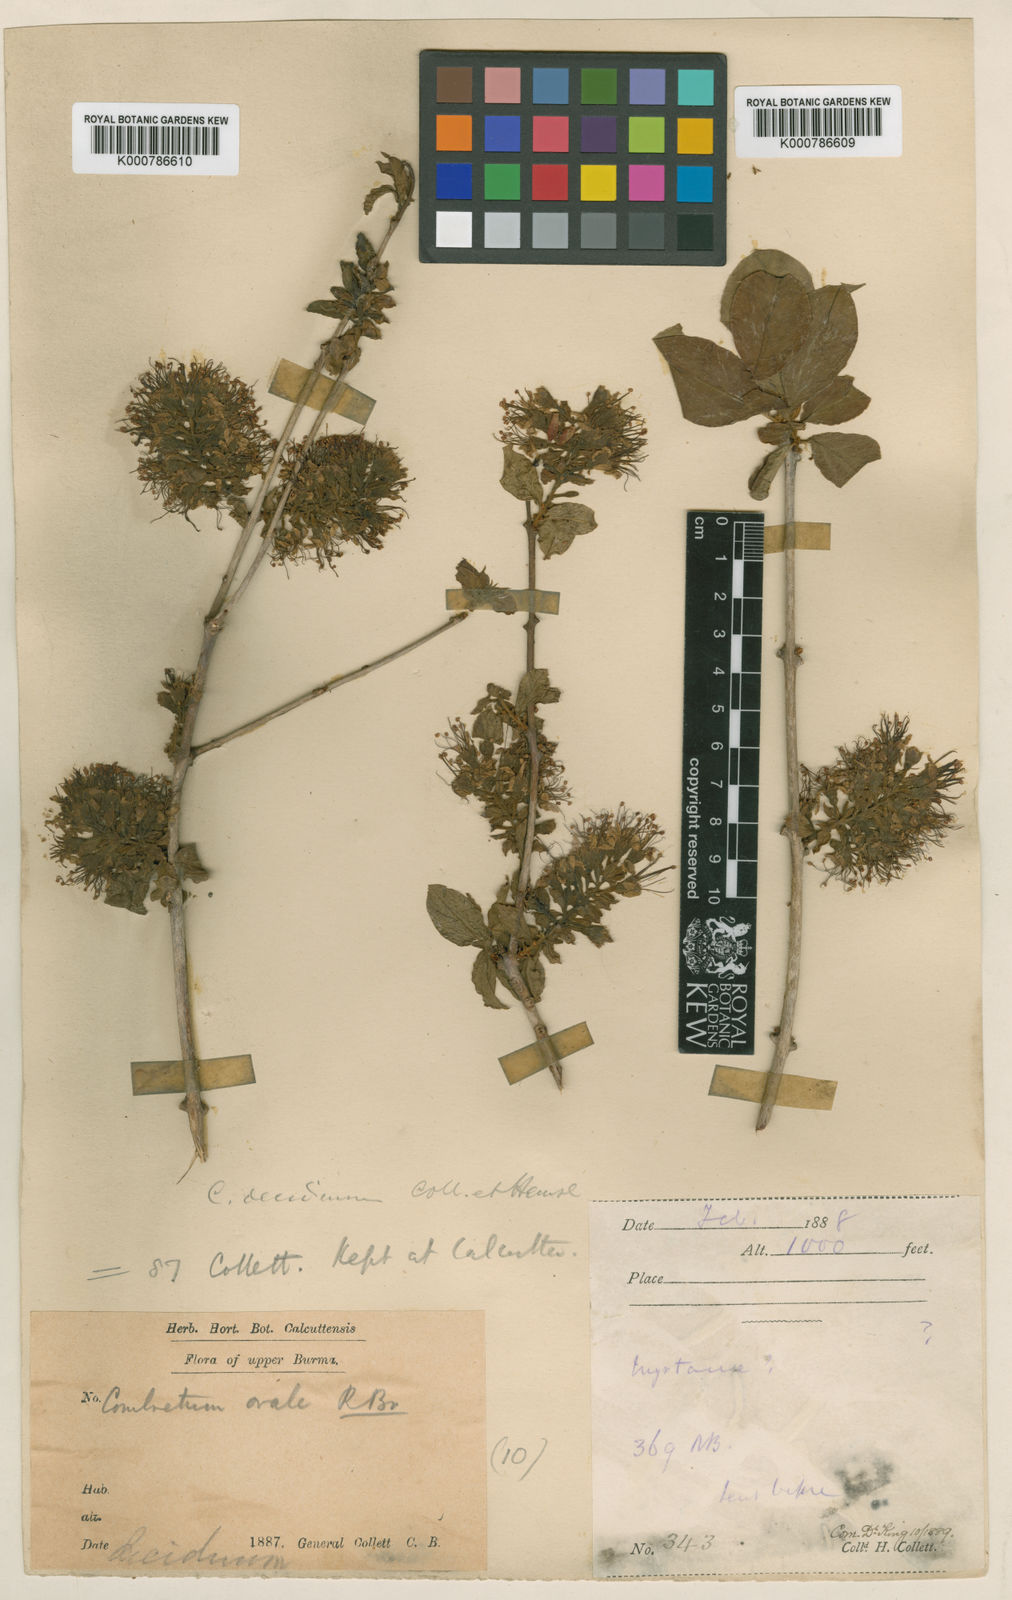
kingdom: Plantae
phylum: Tracheophyta
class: Magnoliopsida
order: Myrtales
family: Combretaceae
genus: Combretum
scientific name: Combretum deciduum
